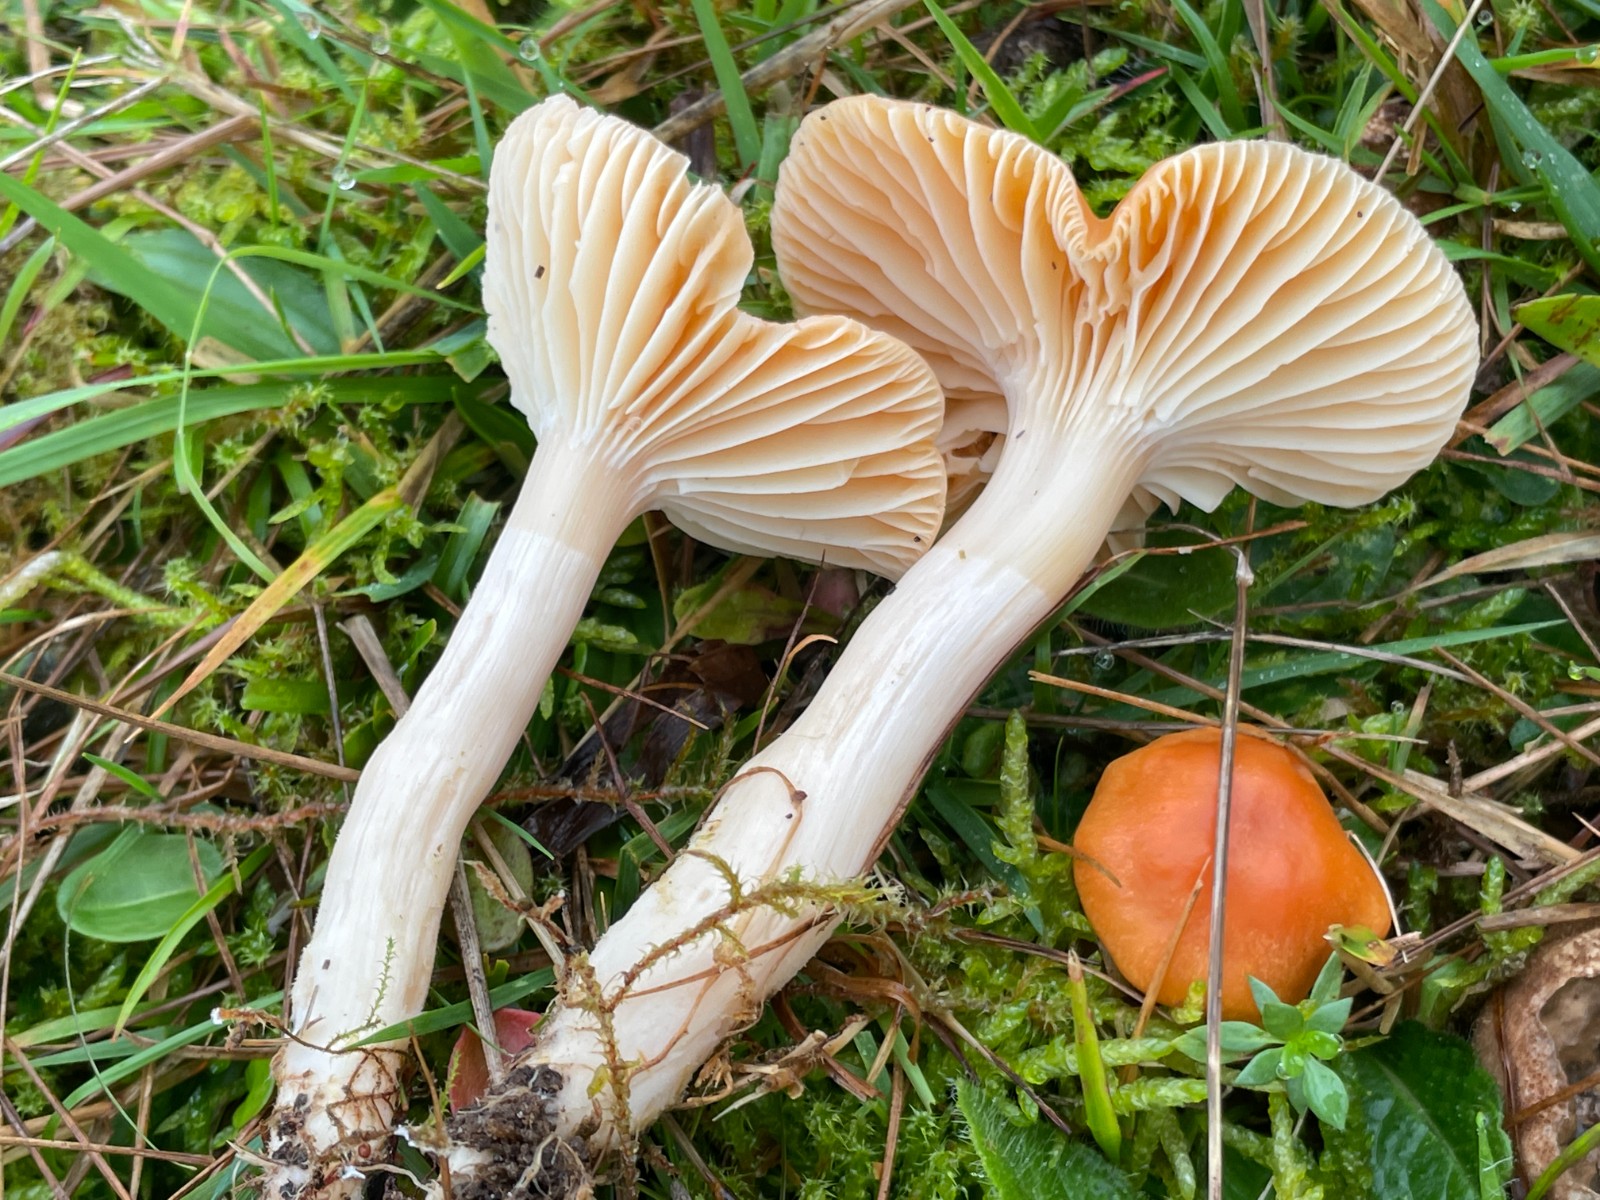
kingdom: Fungi
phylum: Basidiomycota
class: Agaricomycetes
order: Agaricales
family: Hygrophoraceae
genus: Cuphophyllus
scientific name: Cuphophyllus pratensis
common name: eng-vokshat
